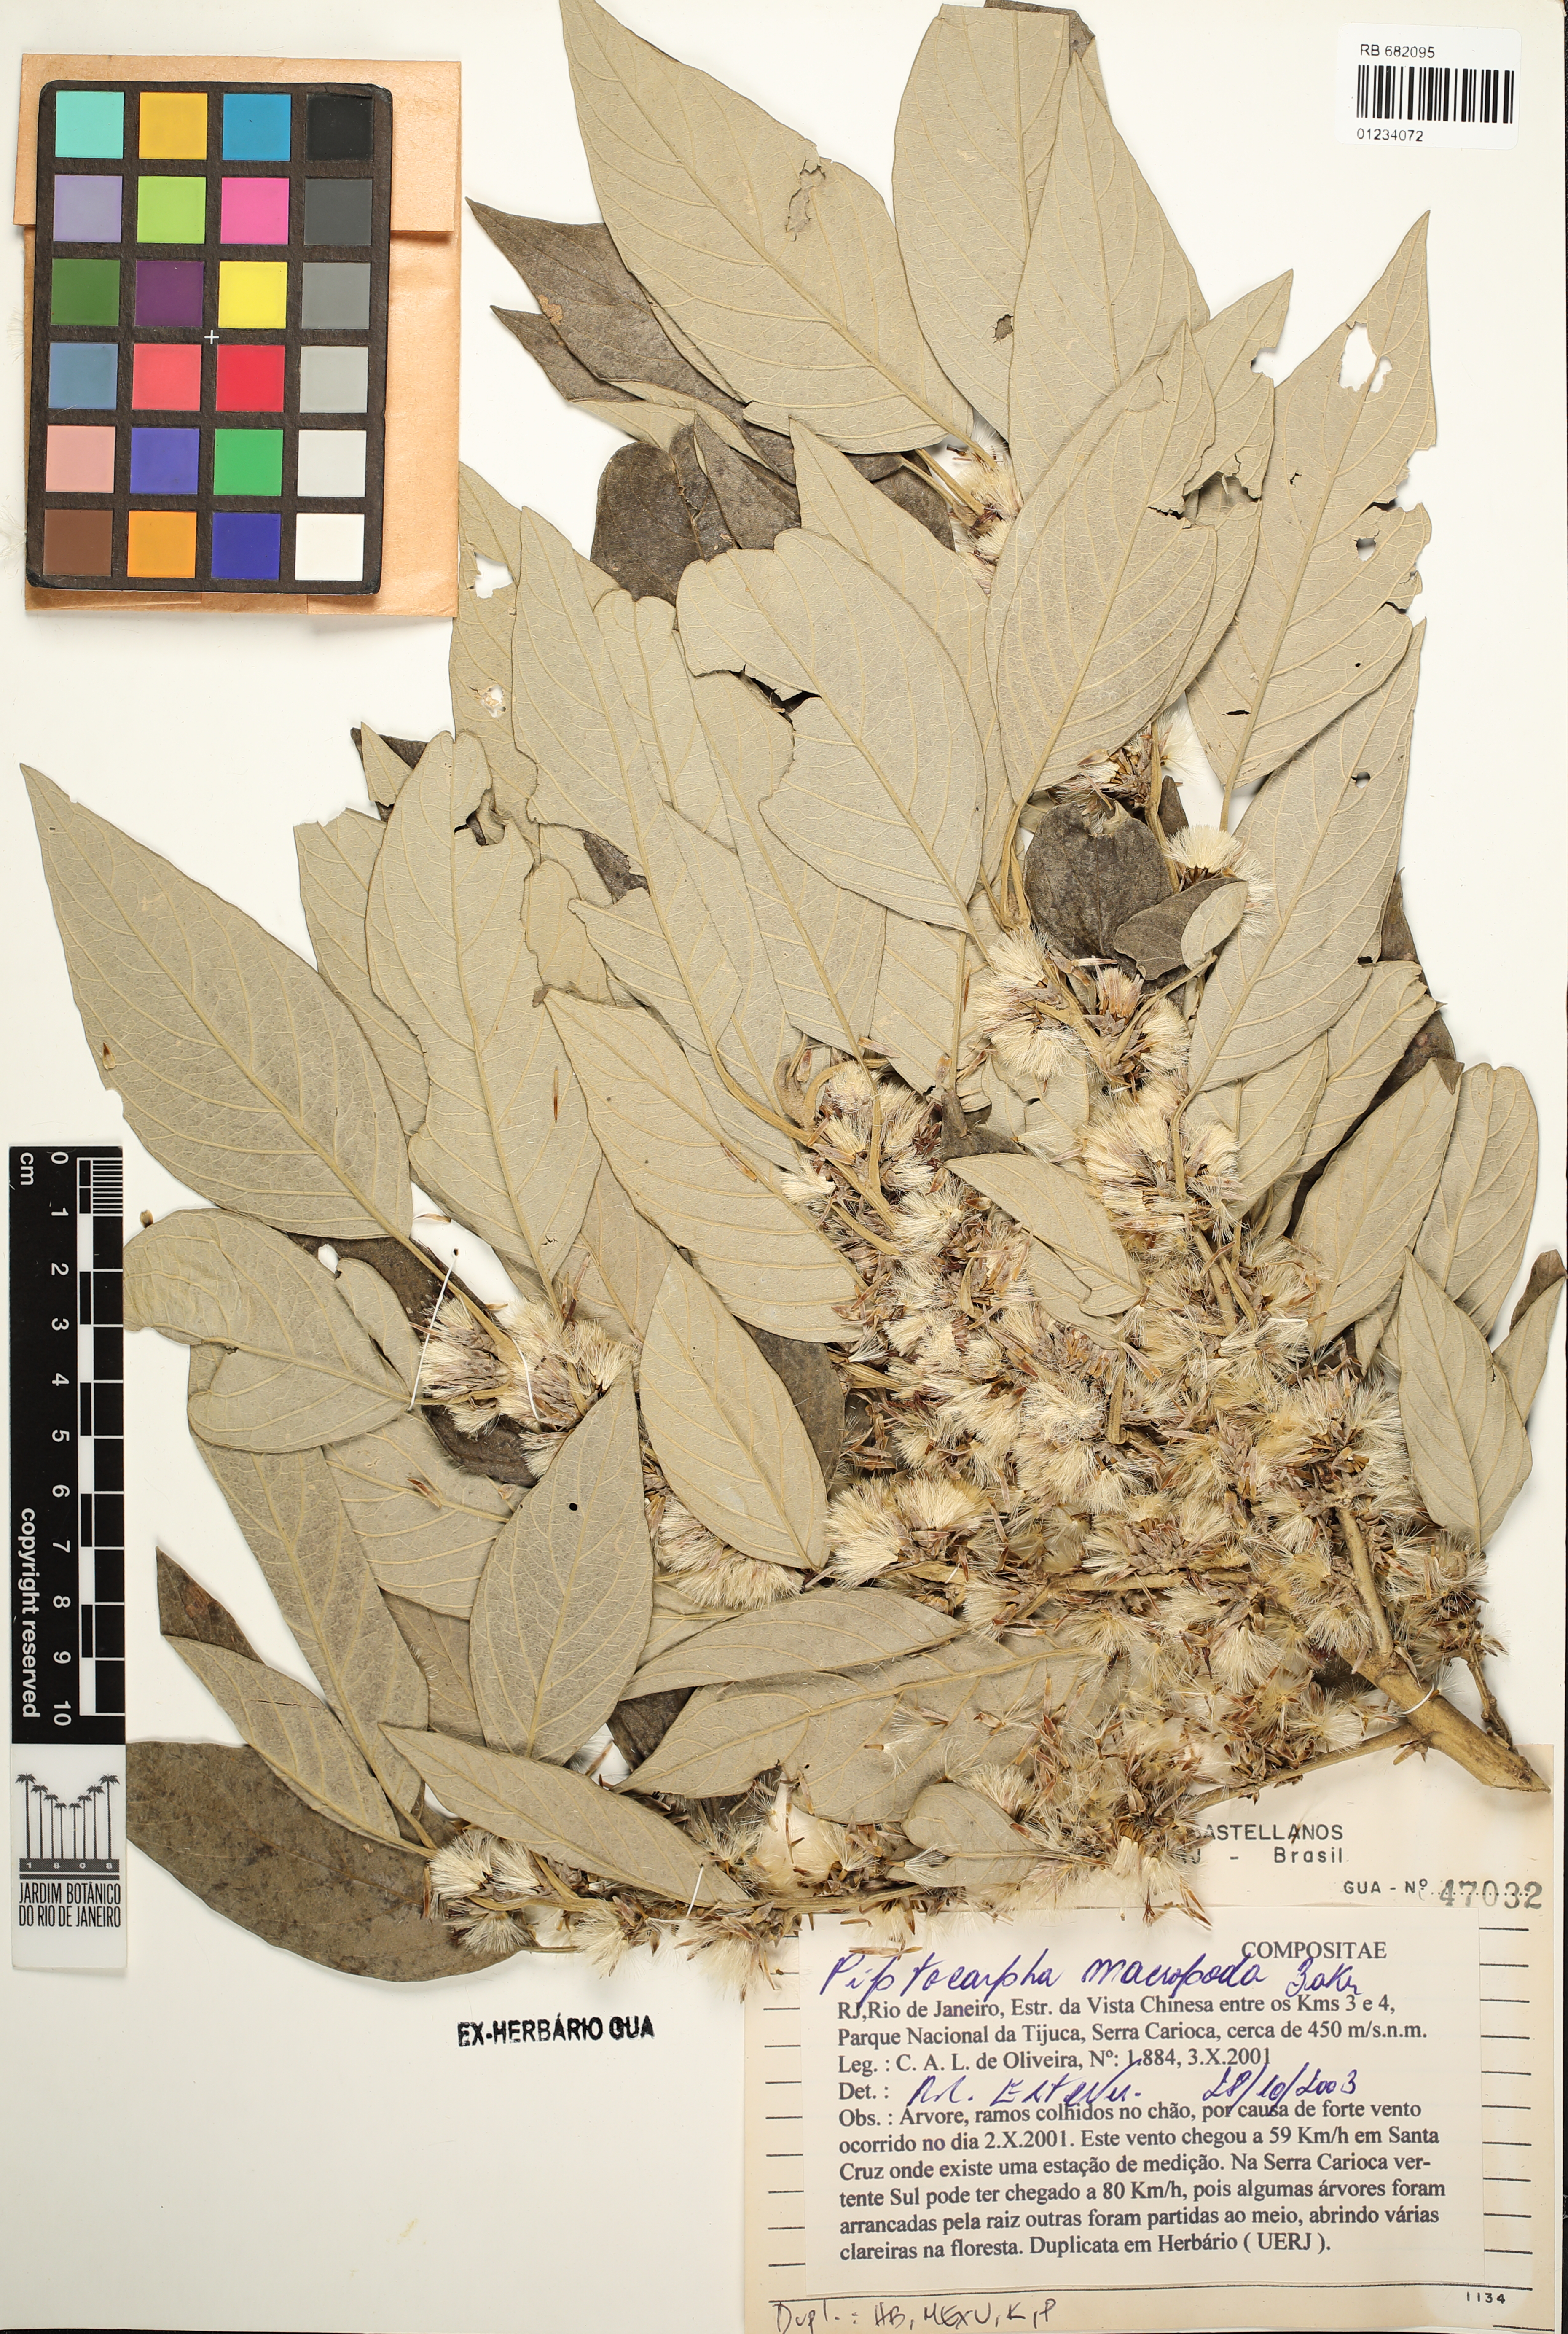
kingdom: Plantae
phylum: Tracheophyta
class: Magnoliopsida
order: Asterales
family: Asteraceae
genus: Piptocarpha
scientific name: Piptocarpha macropoda
